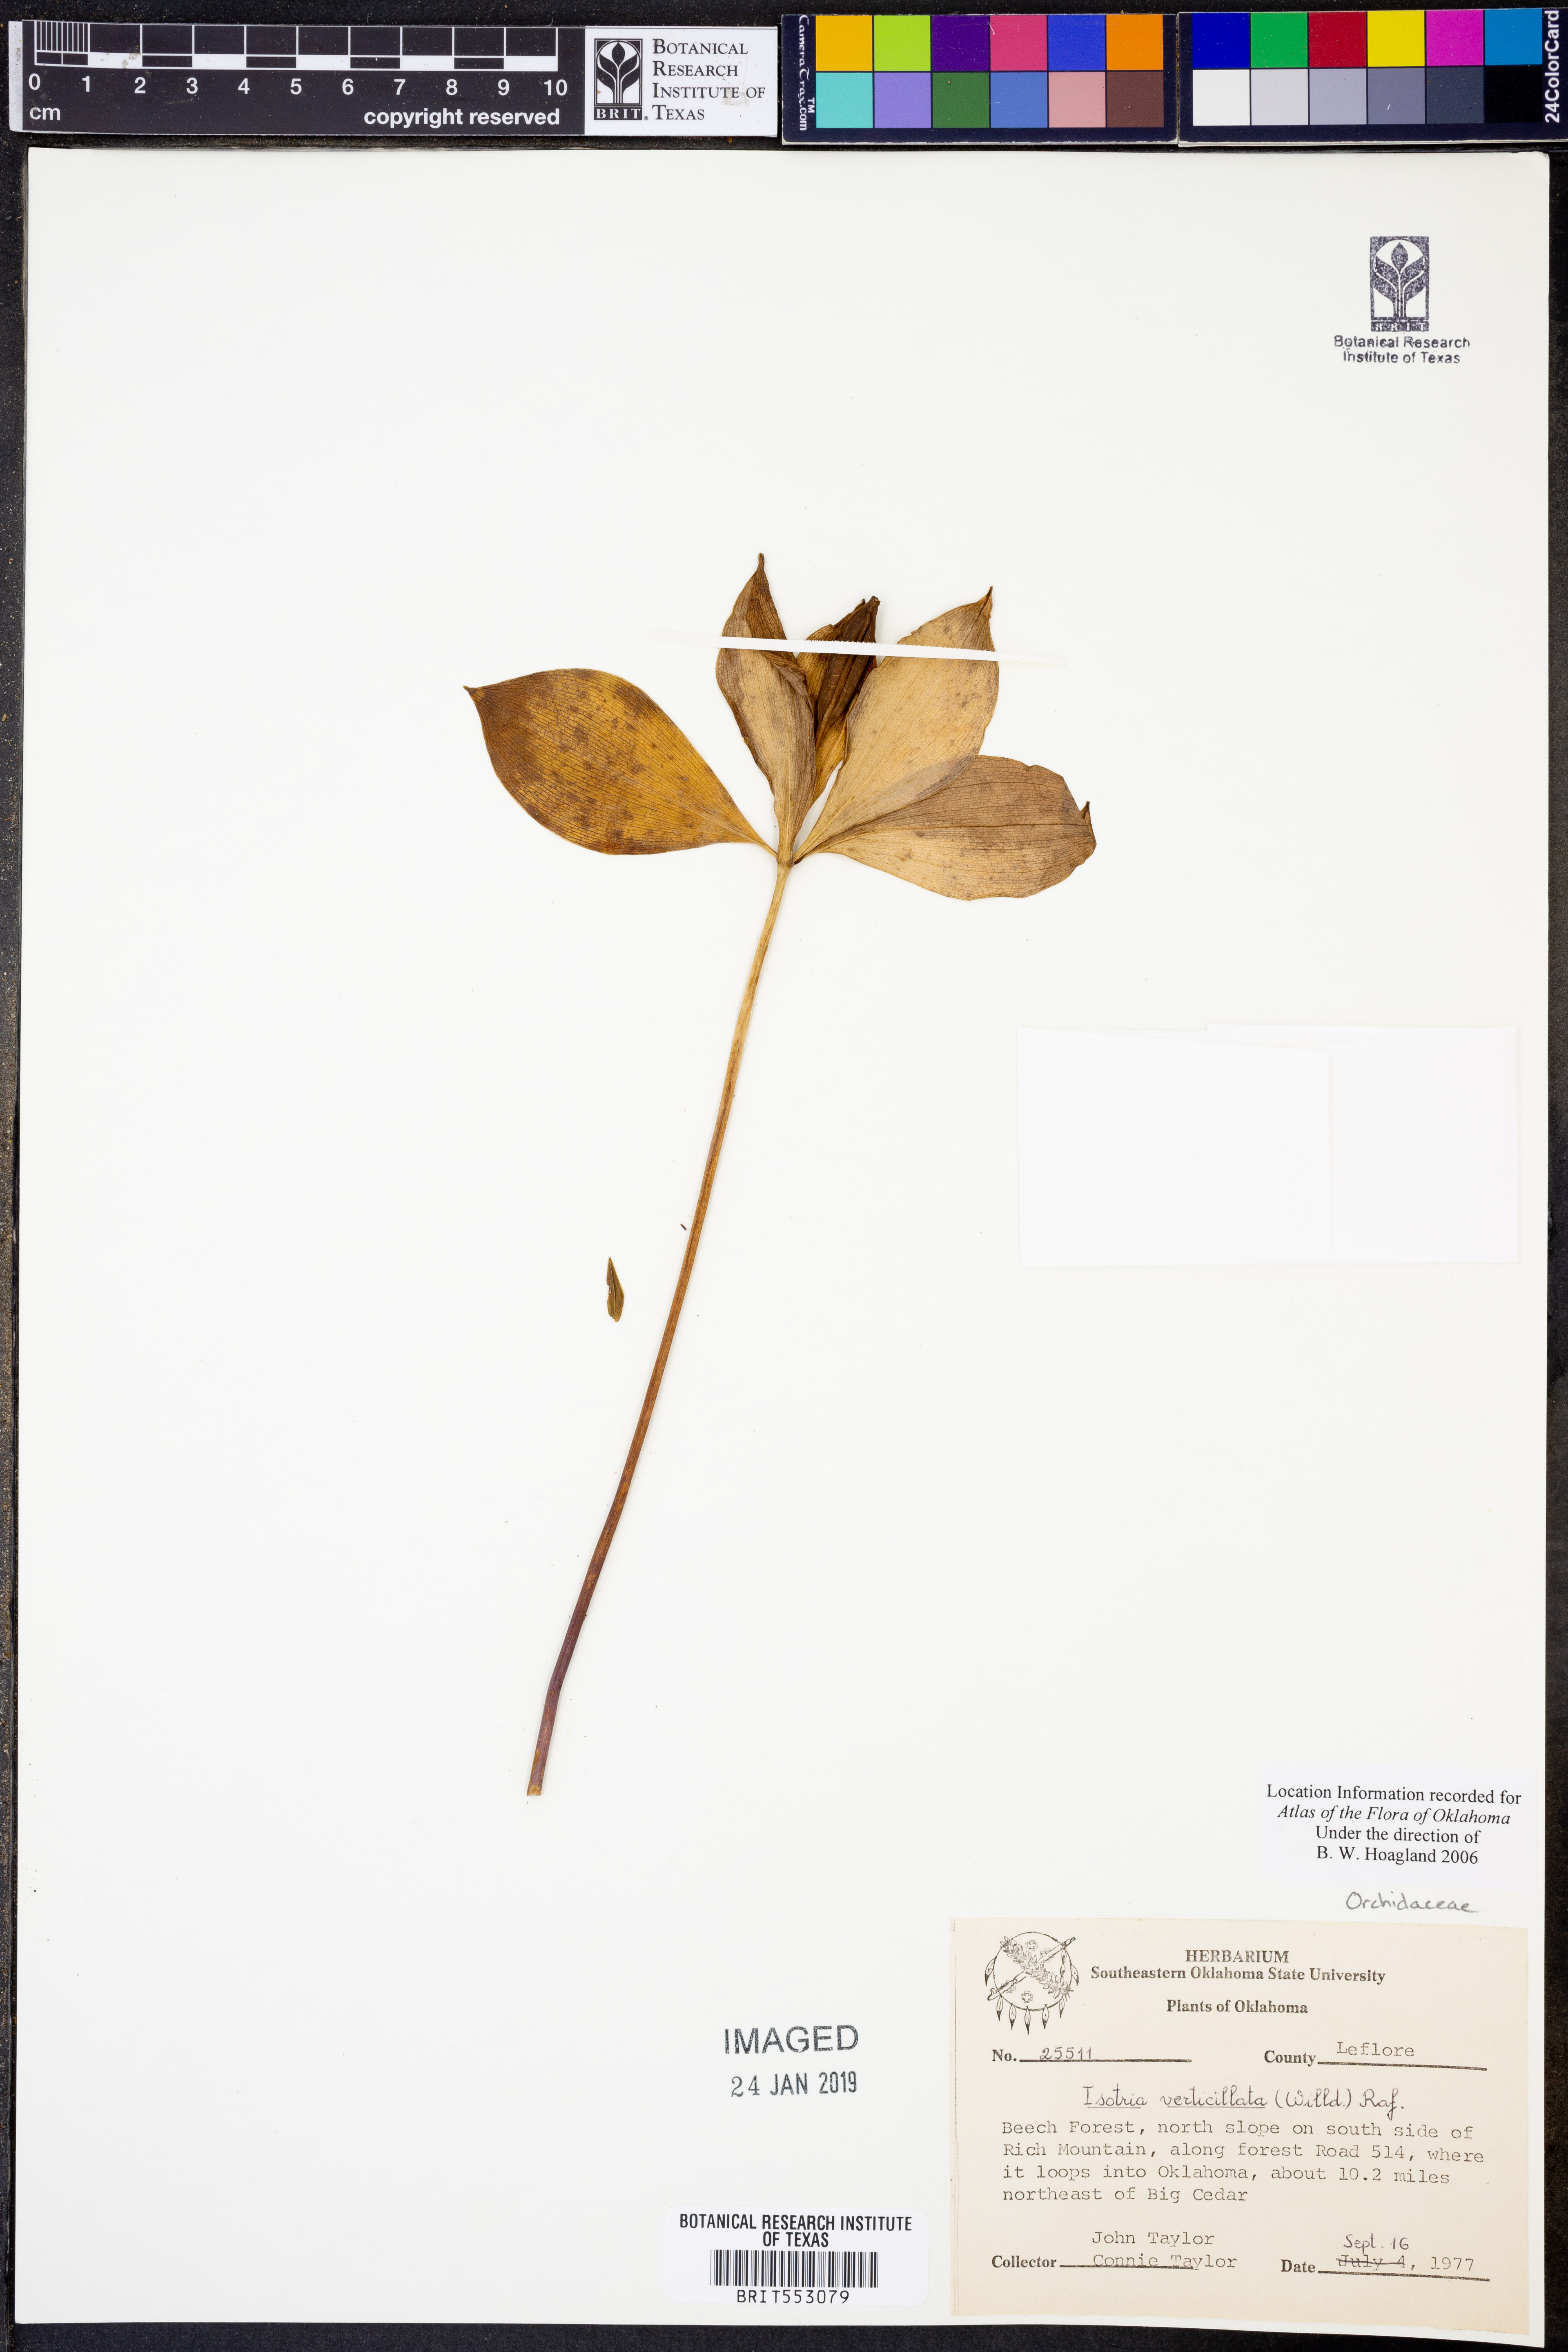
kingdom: Plantae
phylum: Tracheophyta
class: Liliopsida
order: Asparagales
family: Orchidaceae
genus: Isotria
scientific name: Isotria verticillata
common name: Large whorled pogonia
